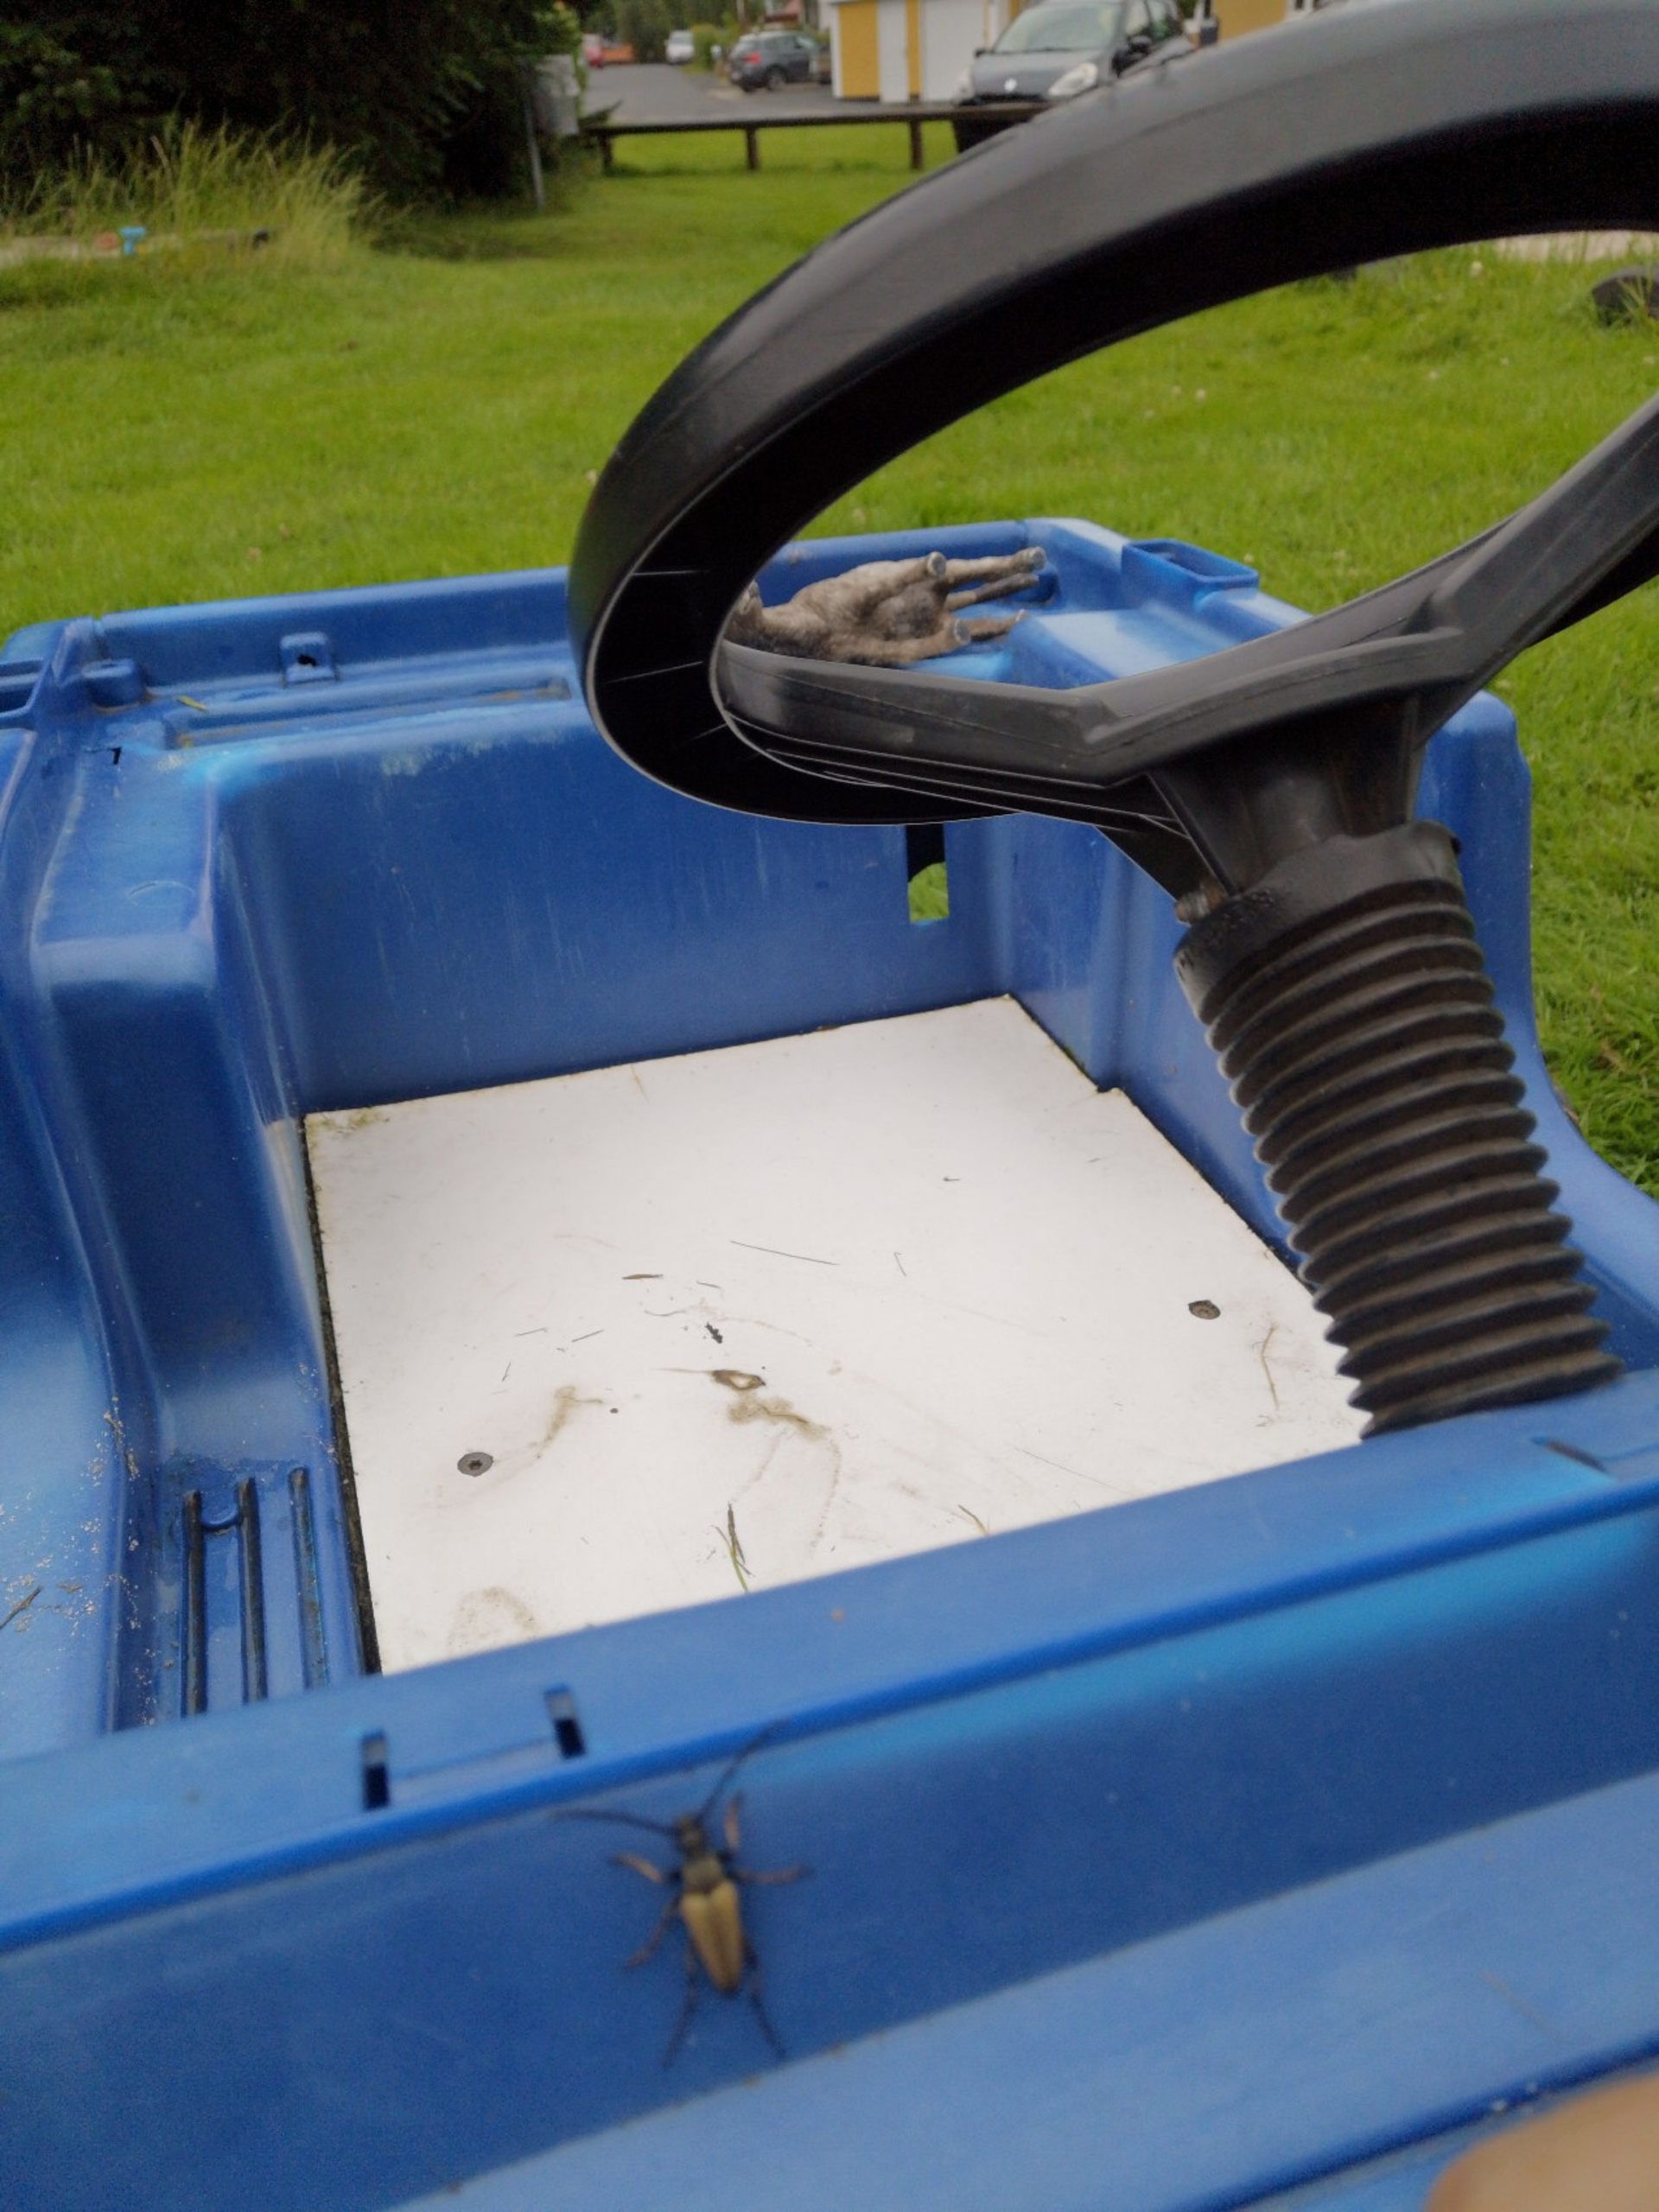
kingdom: Animalia
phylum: Arthropoda
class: Insecta
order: Coleoptera
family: Cerambycidae
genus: Stictoleptura
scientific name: Stictoleptura rubra
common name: Rød blomsterbuk
